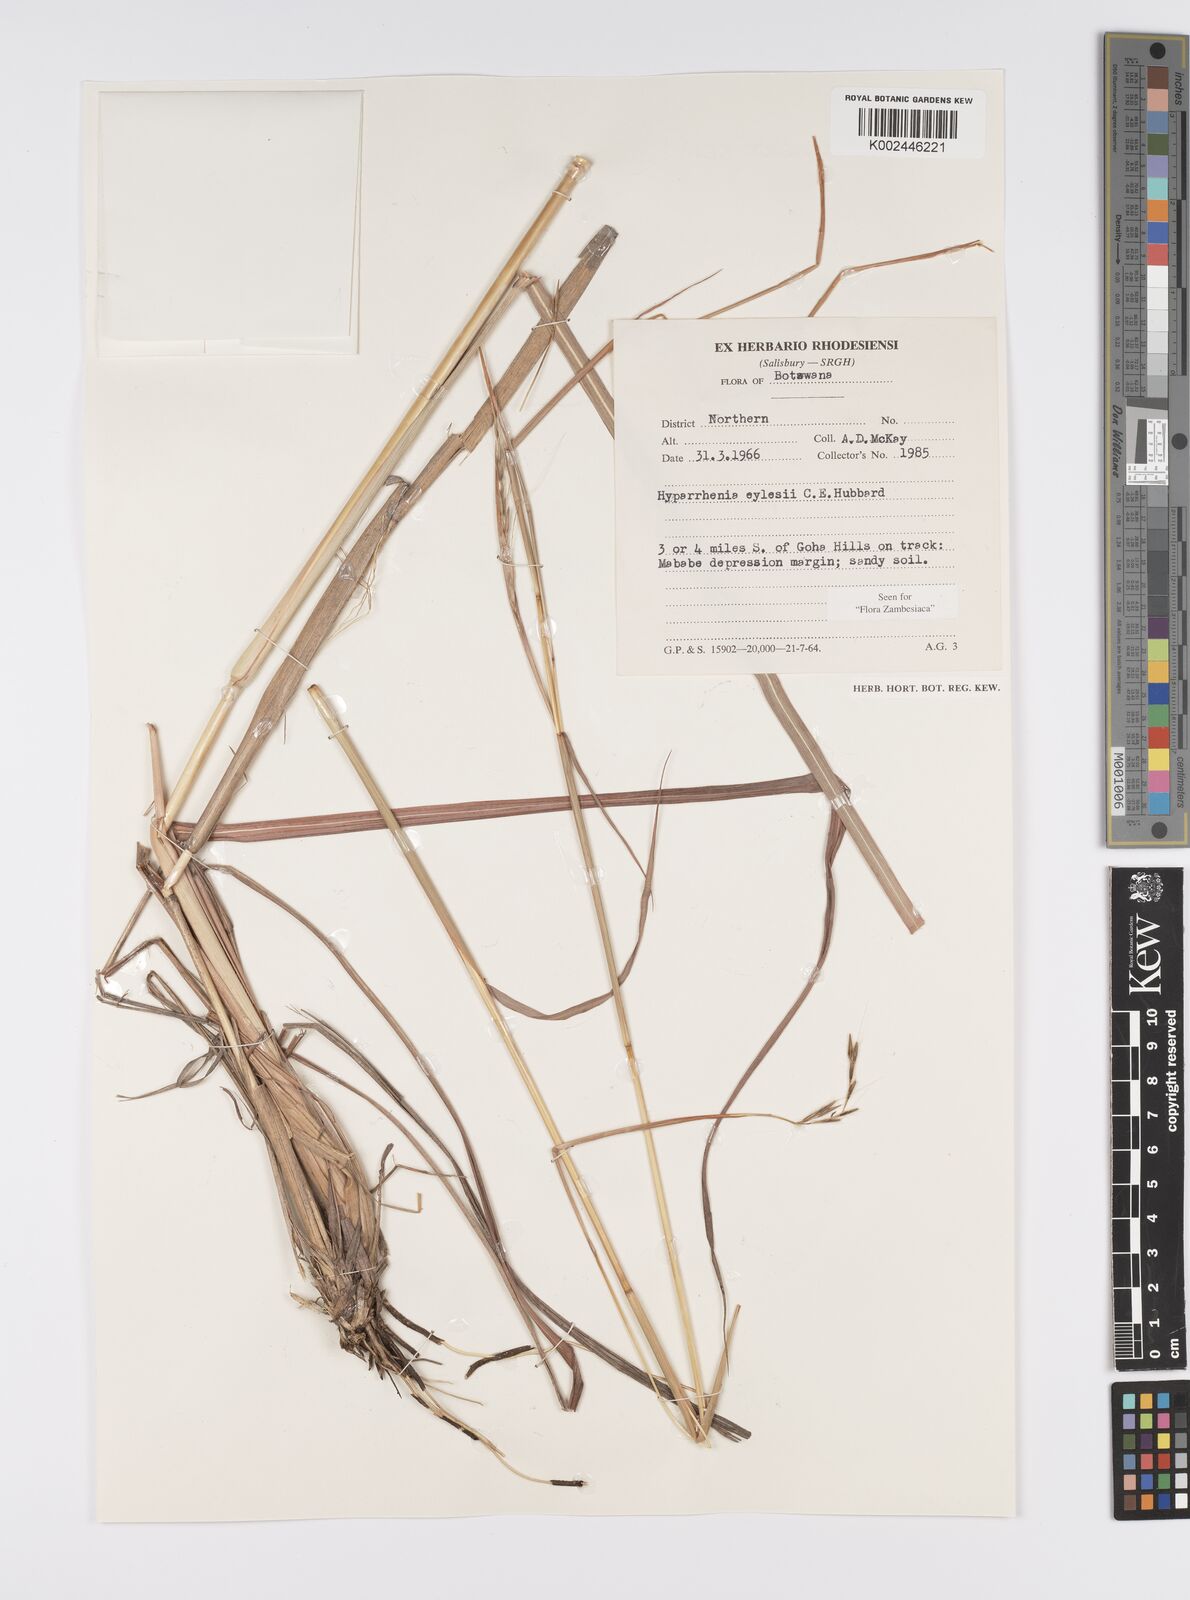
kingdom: Plantae
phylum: Tracheophyta
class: Liliopsida
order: Poales
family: Poaceae
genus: Elymandra
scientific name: Elymandra grallata
